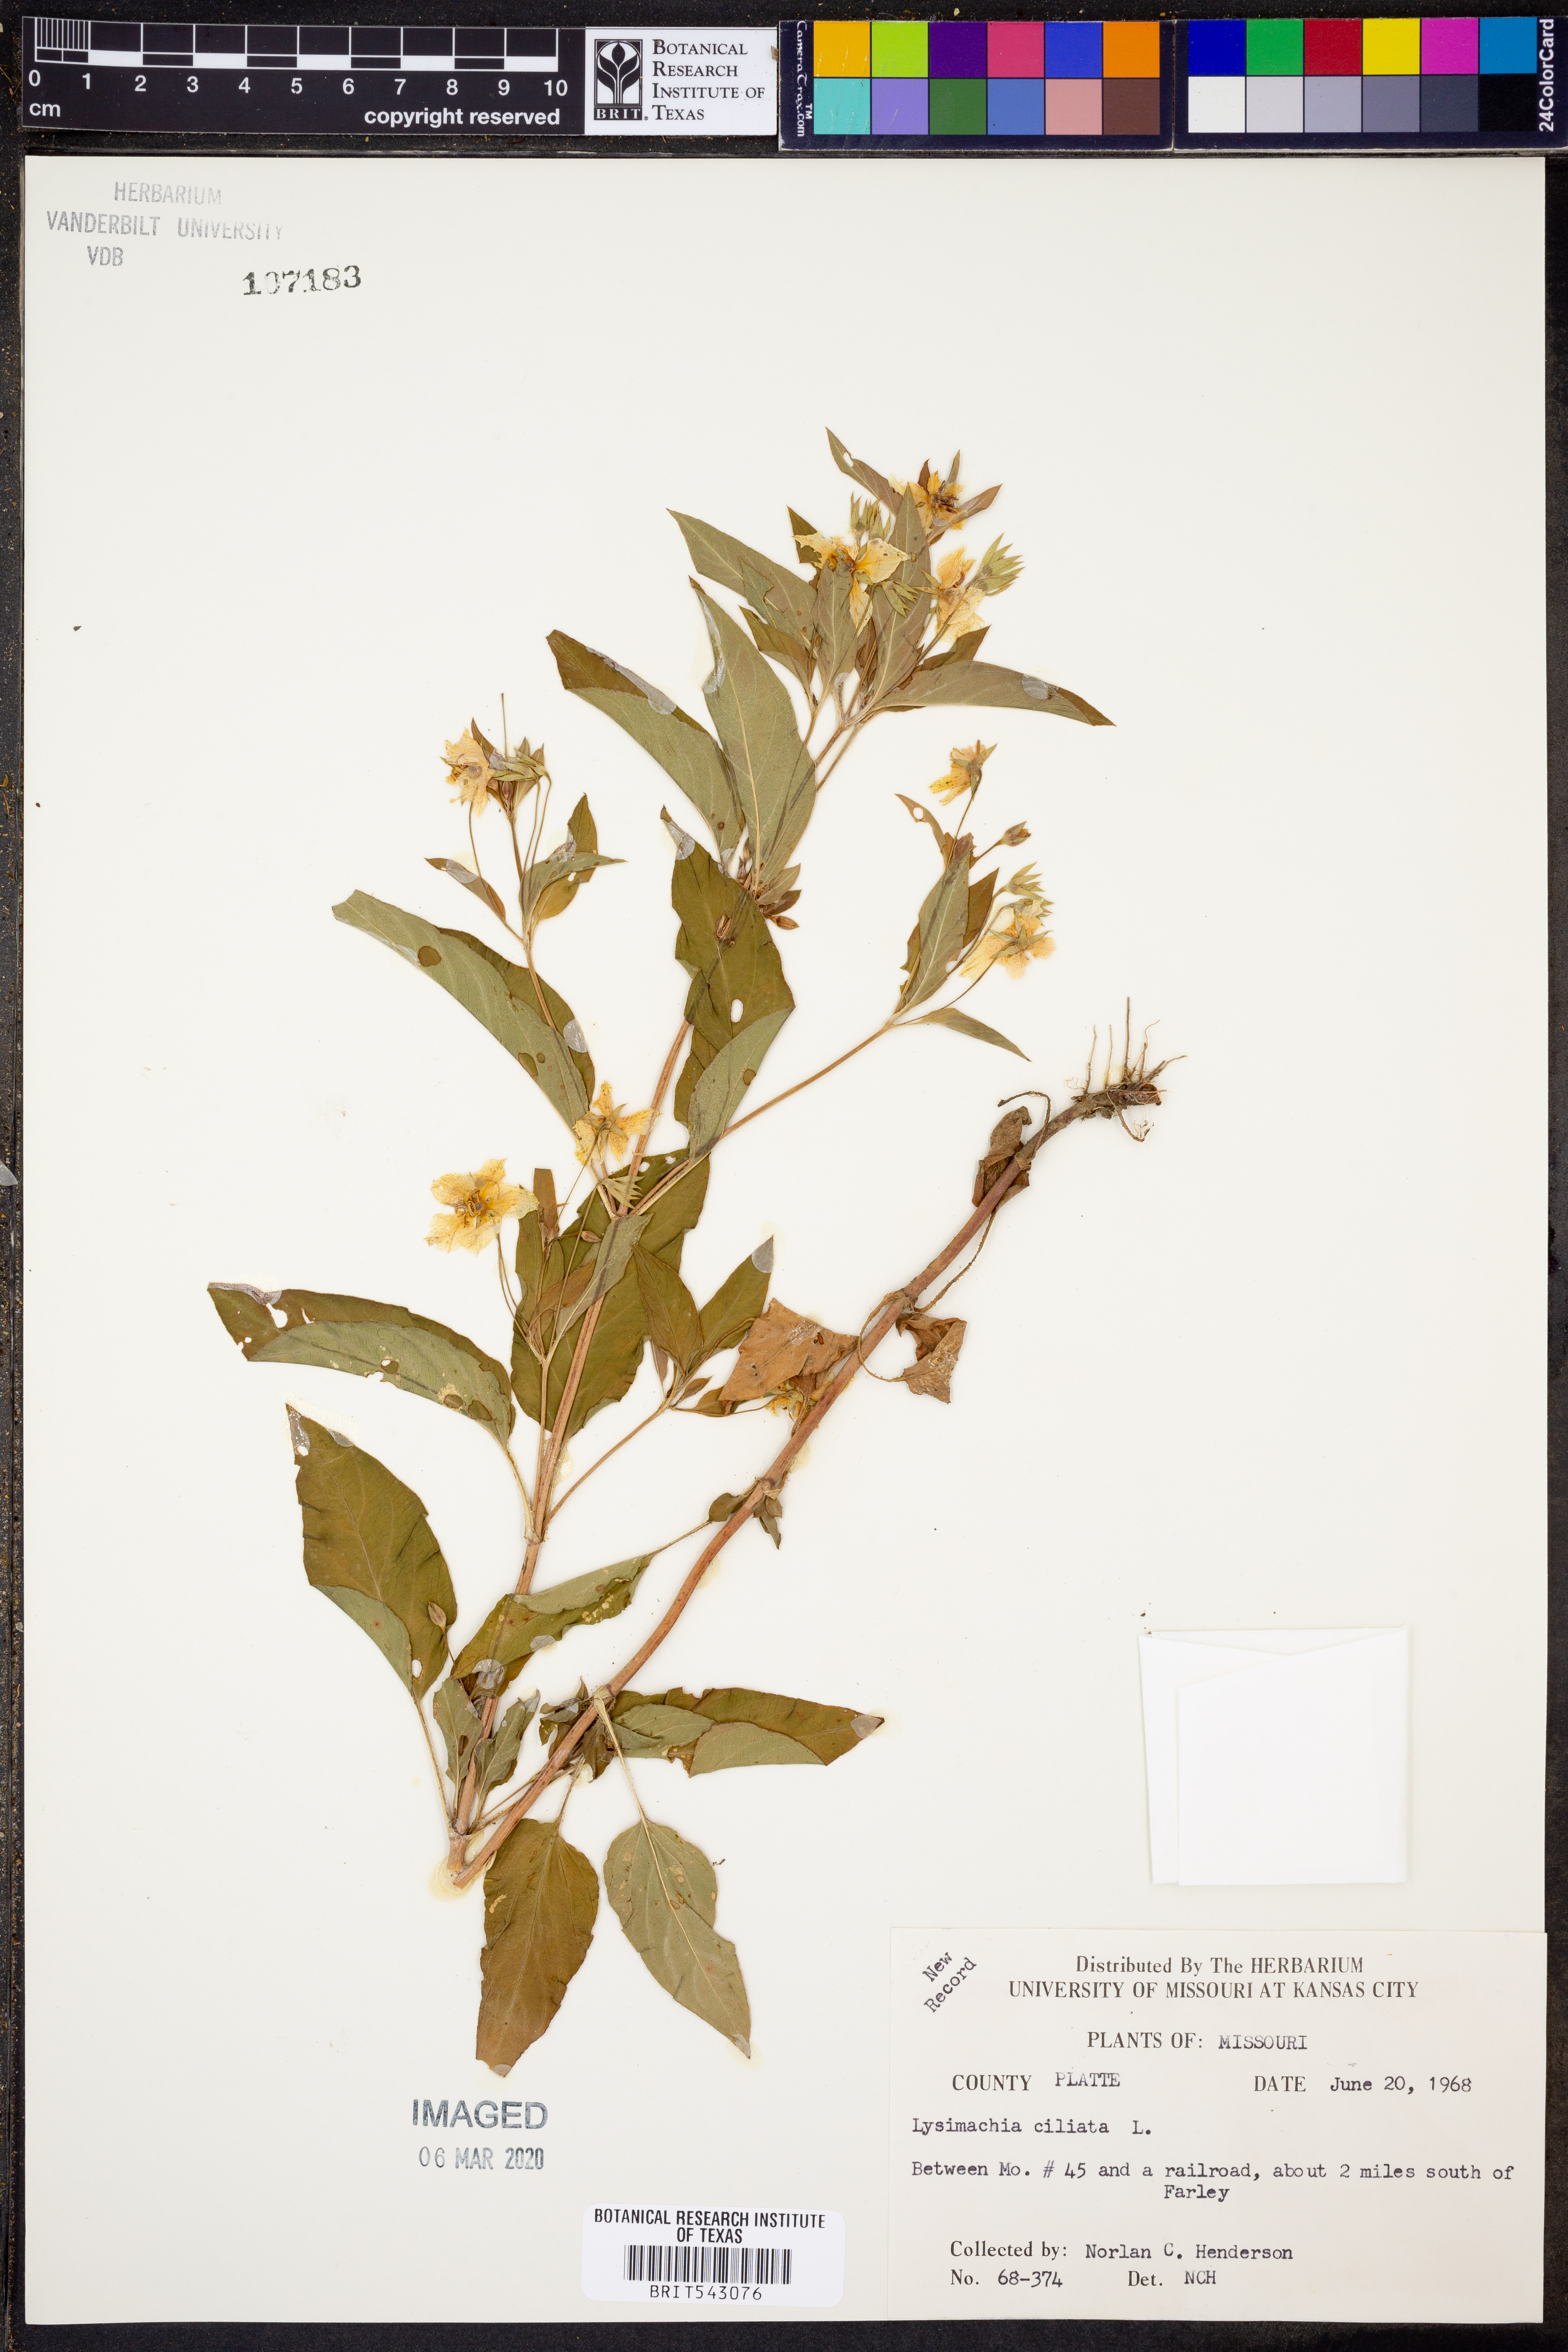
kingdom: Plantae
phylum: Tracheophyta
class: Magnoliopsida
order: Ericales
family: Primulaceae
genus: Lysimachia
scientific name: Lysimachia ciliata
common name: Fringed loosestrife
